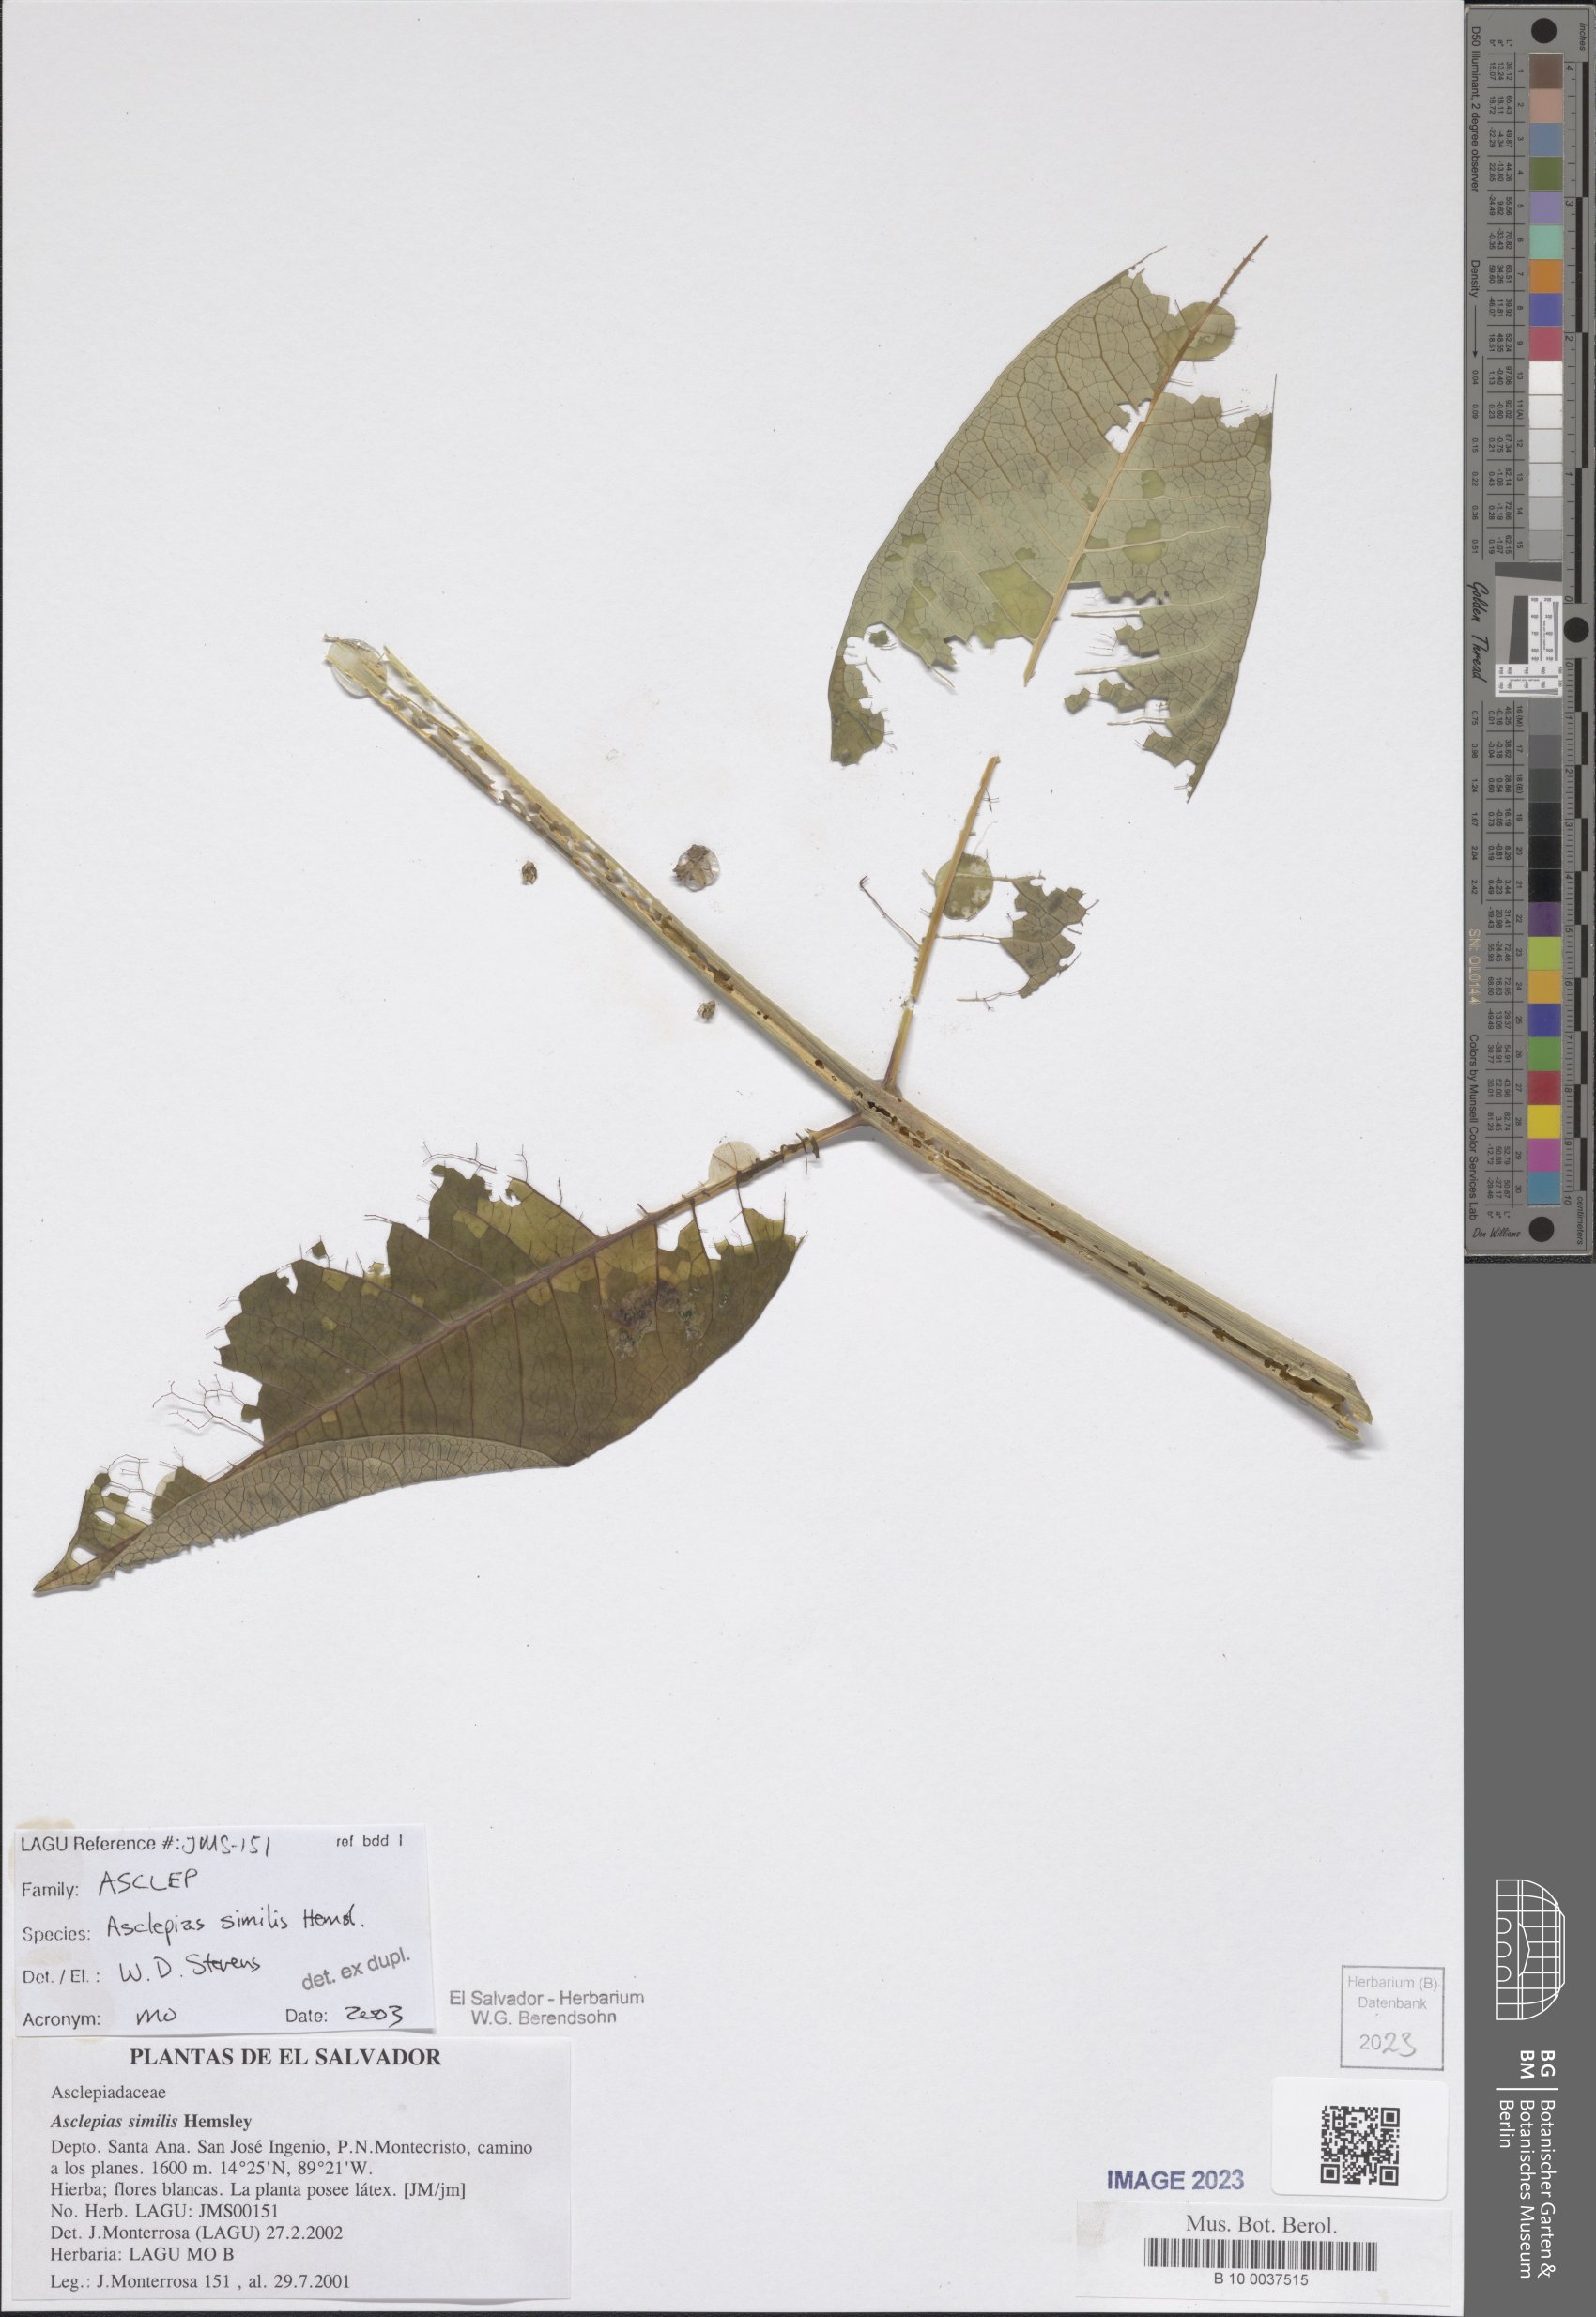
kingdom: Plantae
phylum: Tracheophyta
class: Magnoliopsida
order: Gentianales
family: Apocynaceae
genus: Asclepias
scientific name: Asclepias similis
